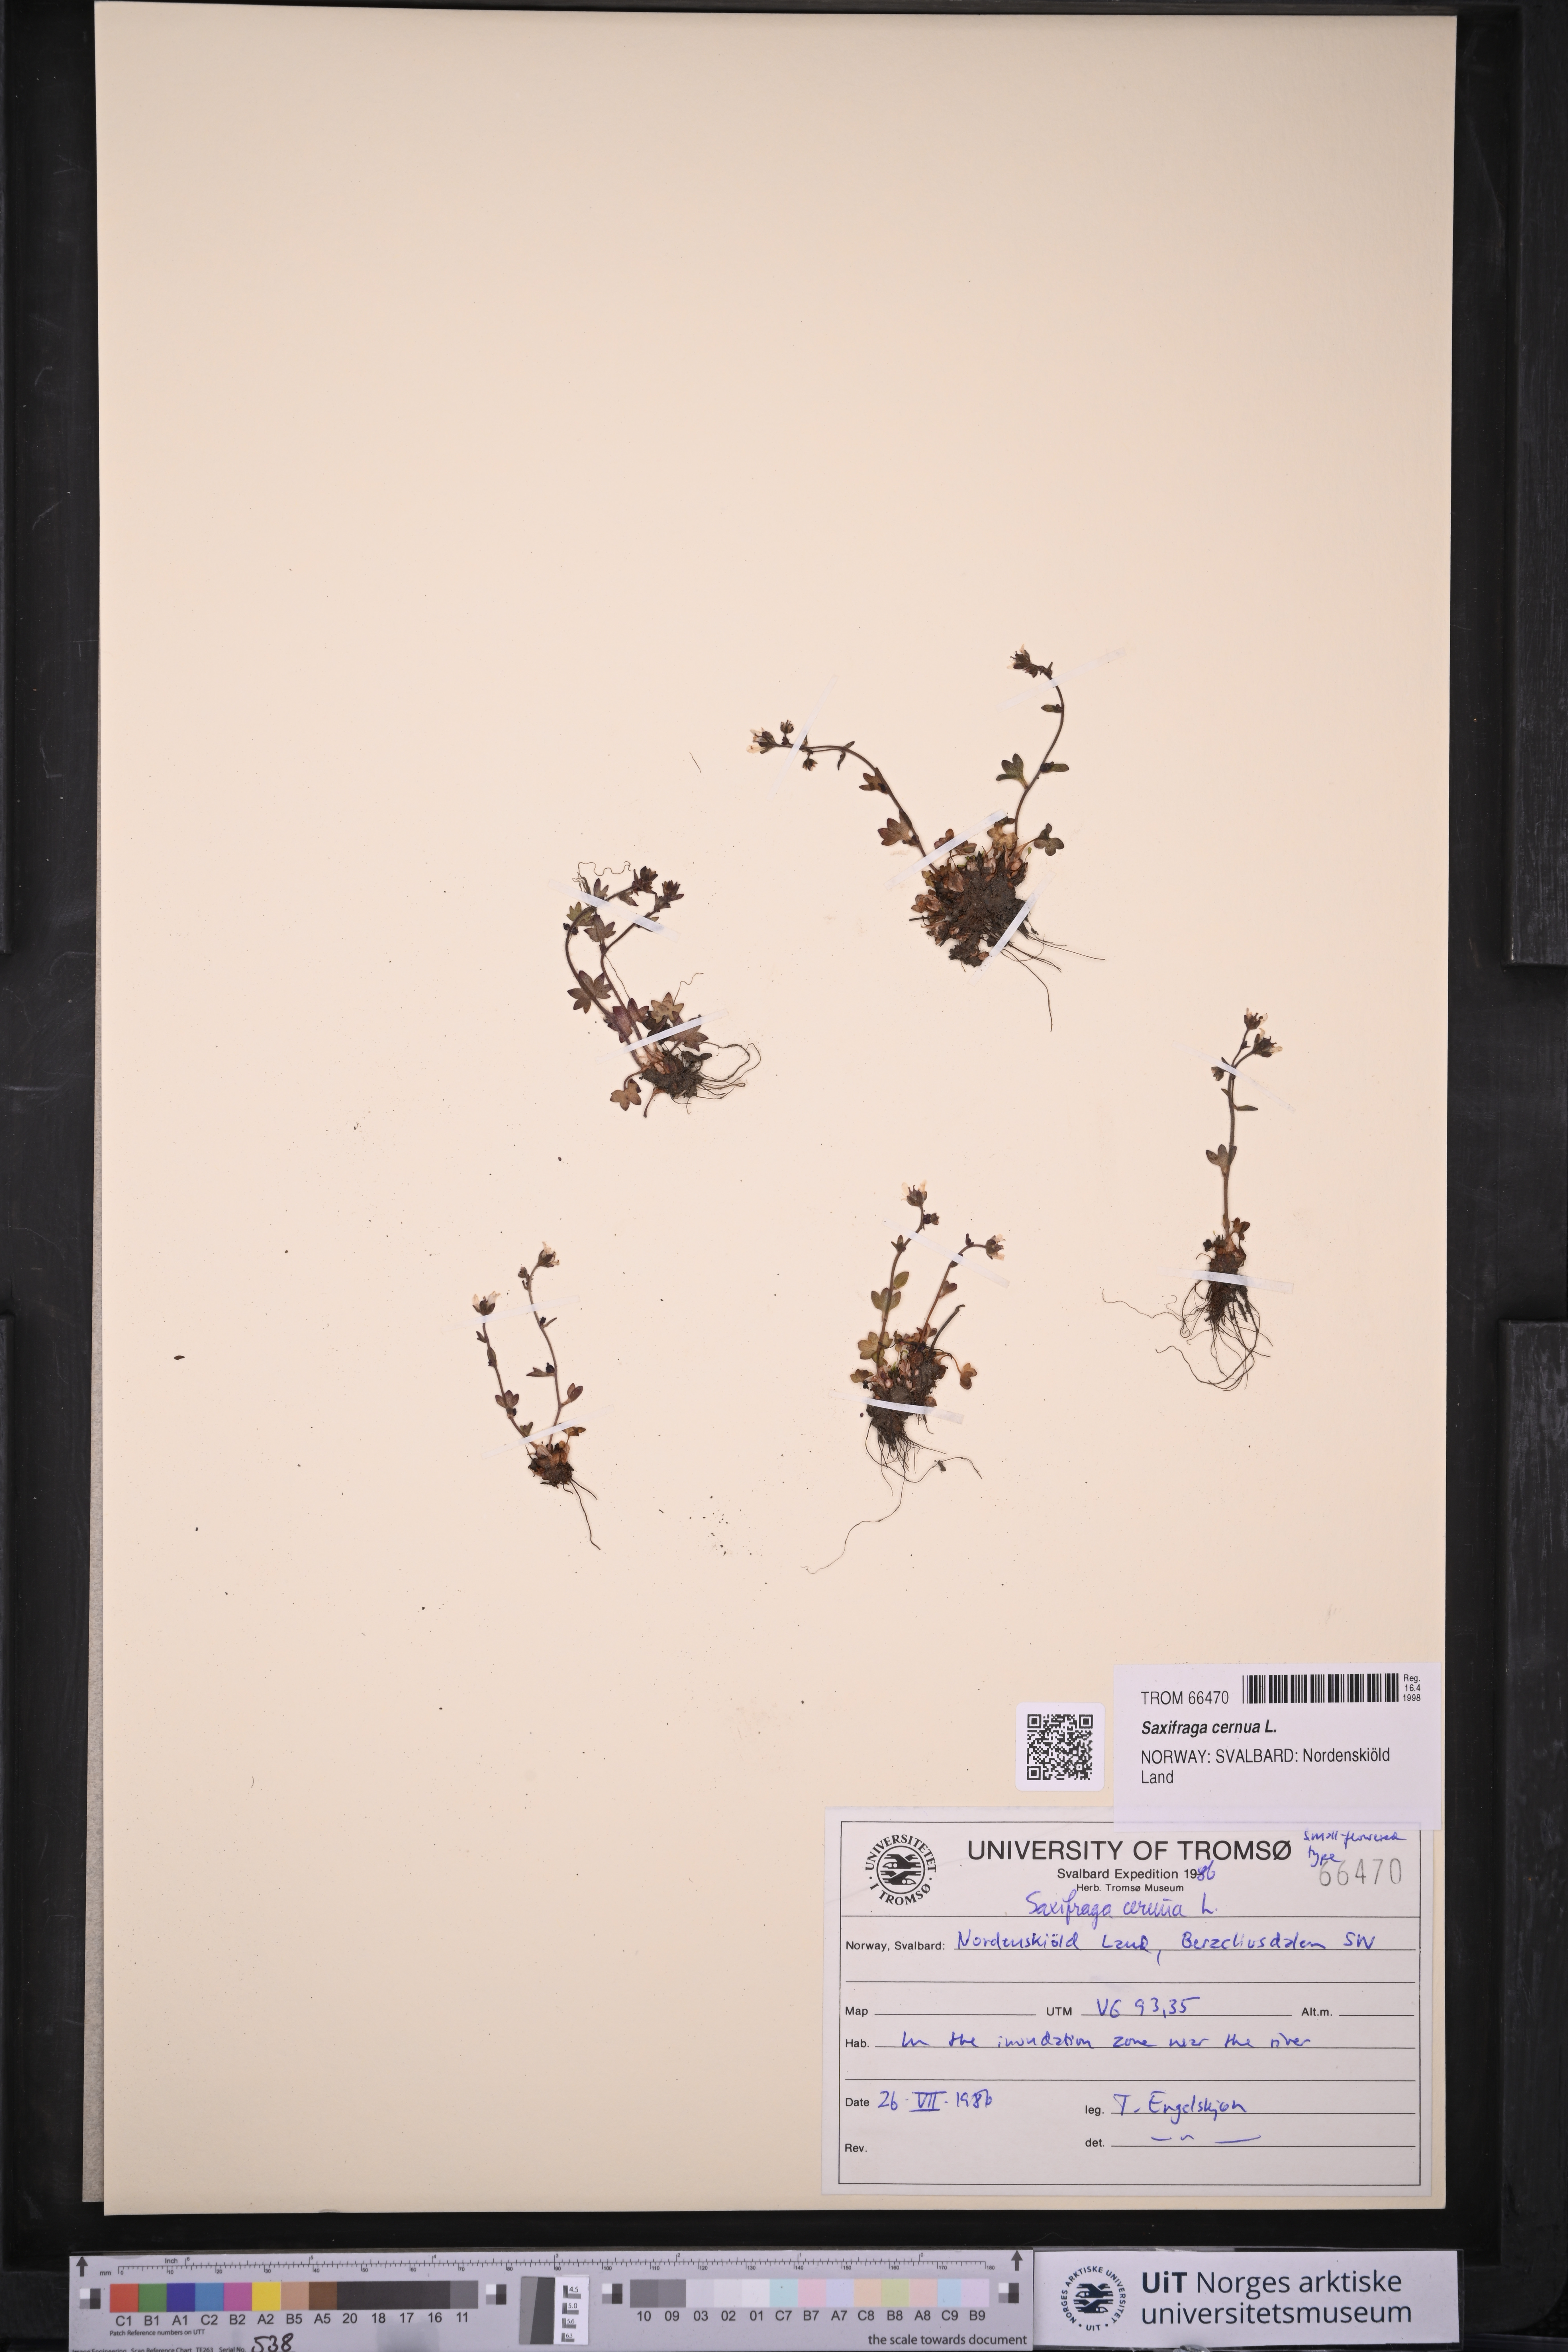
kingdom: Plantae
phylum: Tracheophyta
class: Magnoliopsida
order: Saxifragales
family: Saxifragaceae
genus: Saxifraga
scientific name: Saxifraga cernua
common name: Drooping saxifrage
